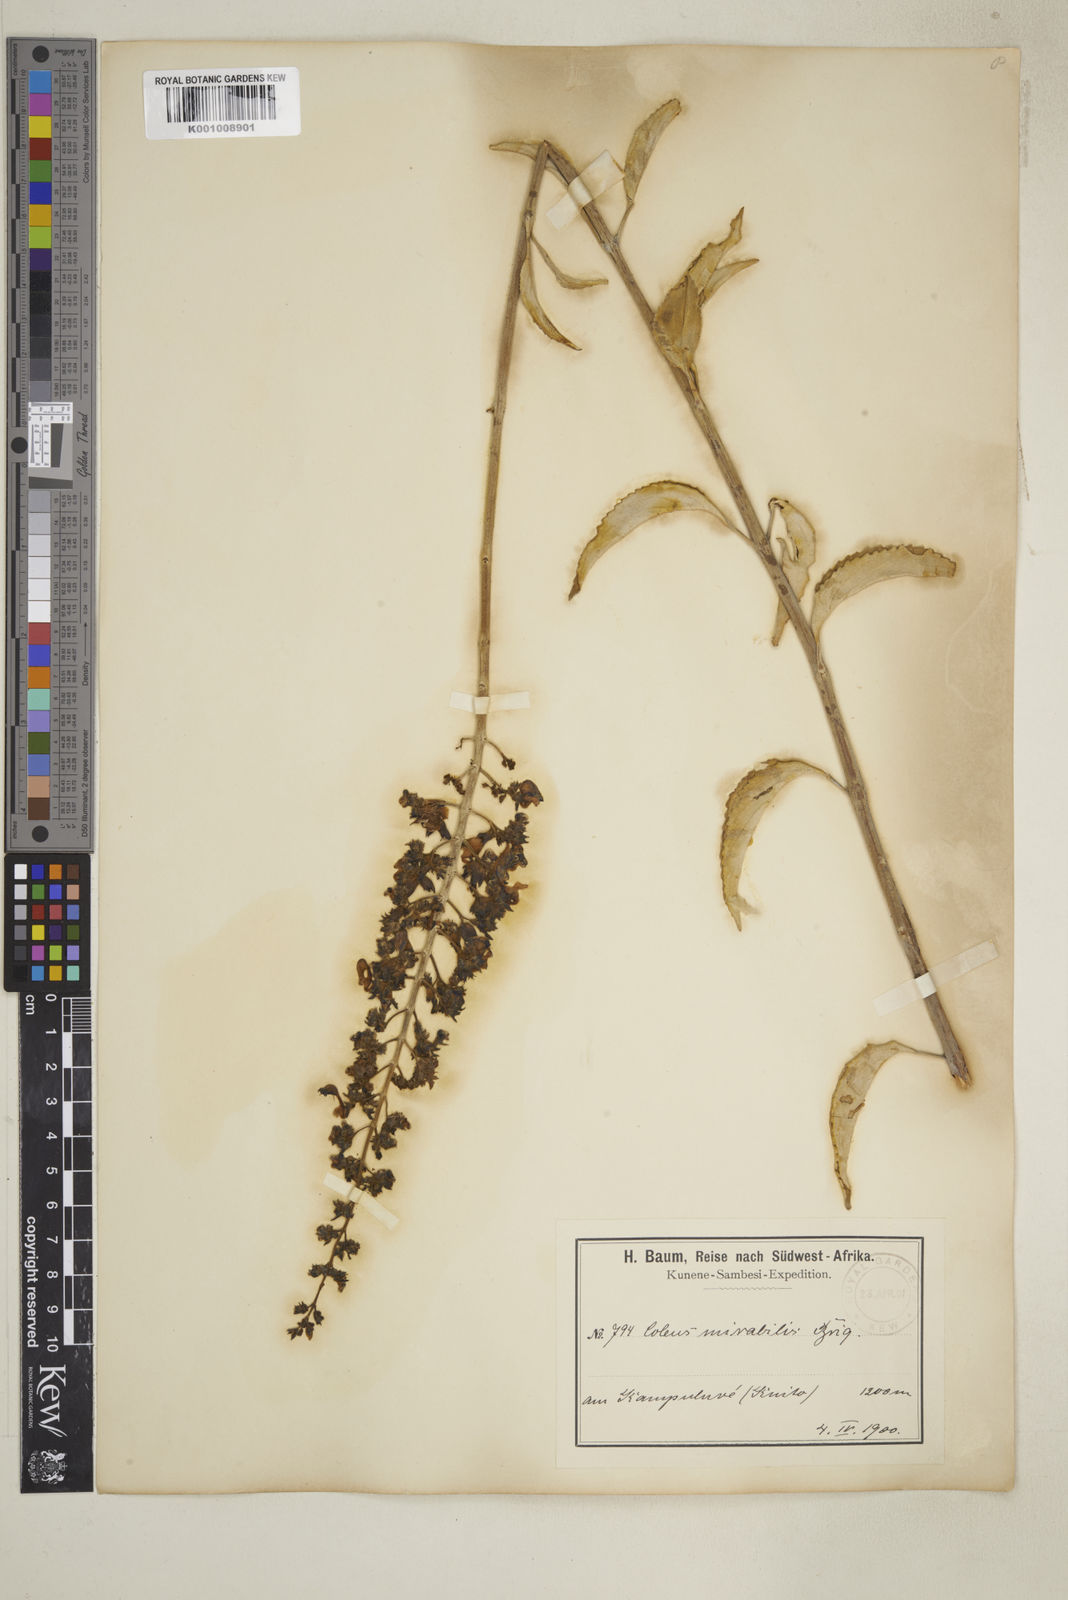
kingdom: Plantae
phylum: Tracheophyta
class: Magnoliopsida
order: Lamiales
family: Lamiaceae
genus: Plectranthus
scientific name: Plectranthus
